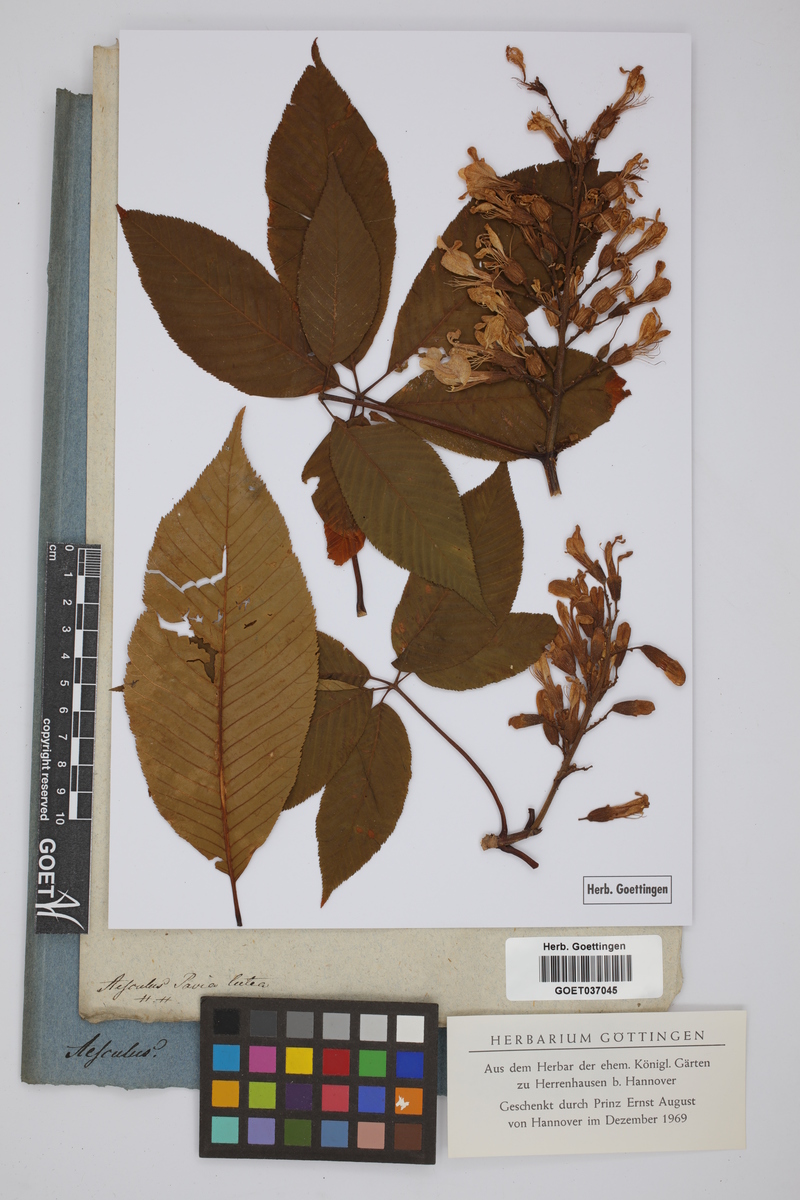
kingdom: Plantae
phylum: Tracheophyta
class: Magnoliopsida
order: Sapindales
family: Sapindaceae
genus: Aesculus
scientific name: Aesculus pavia
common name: Red buckeye
